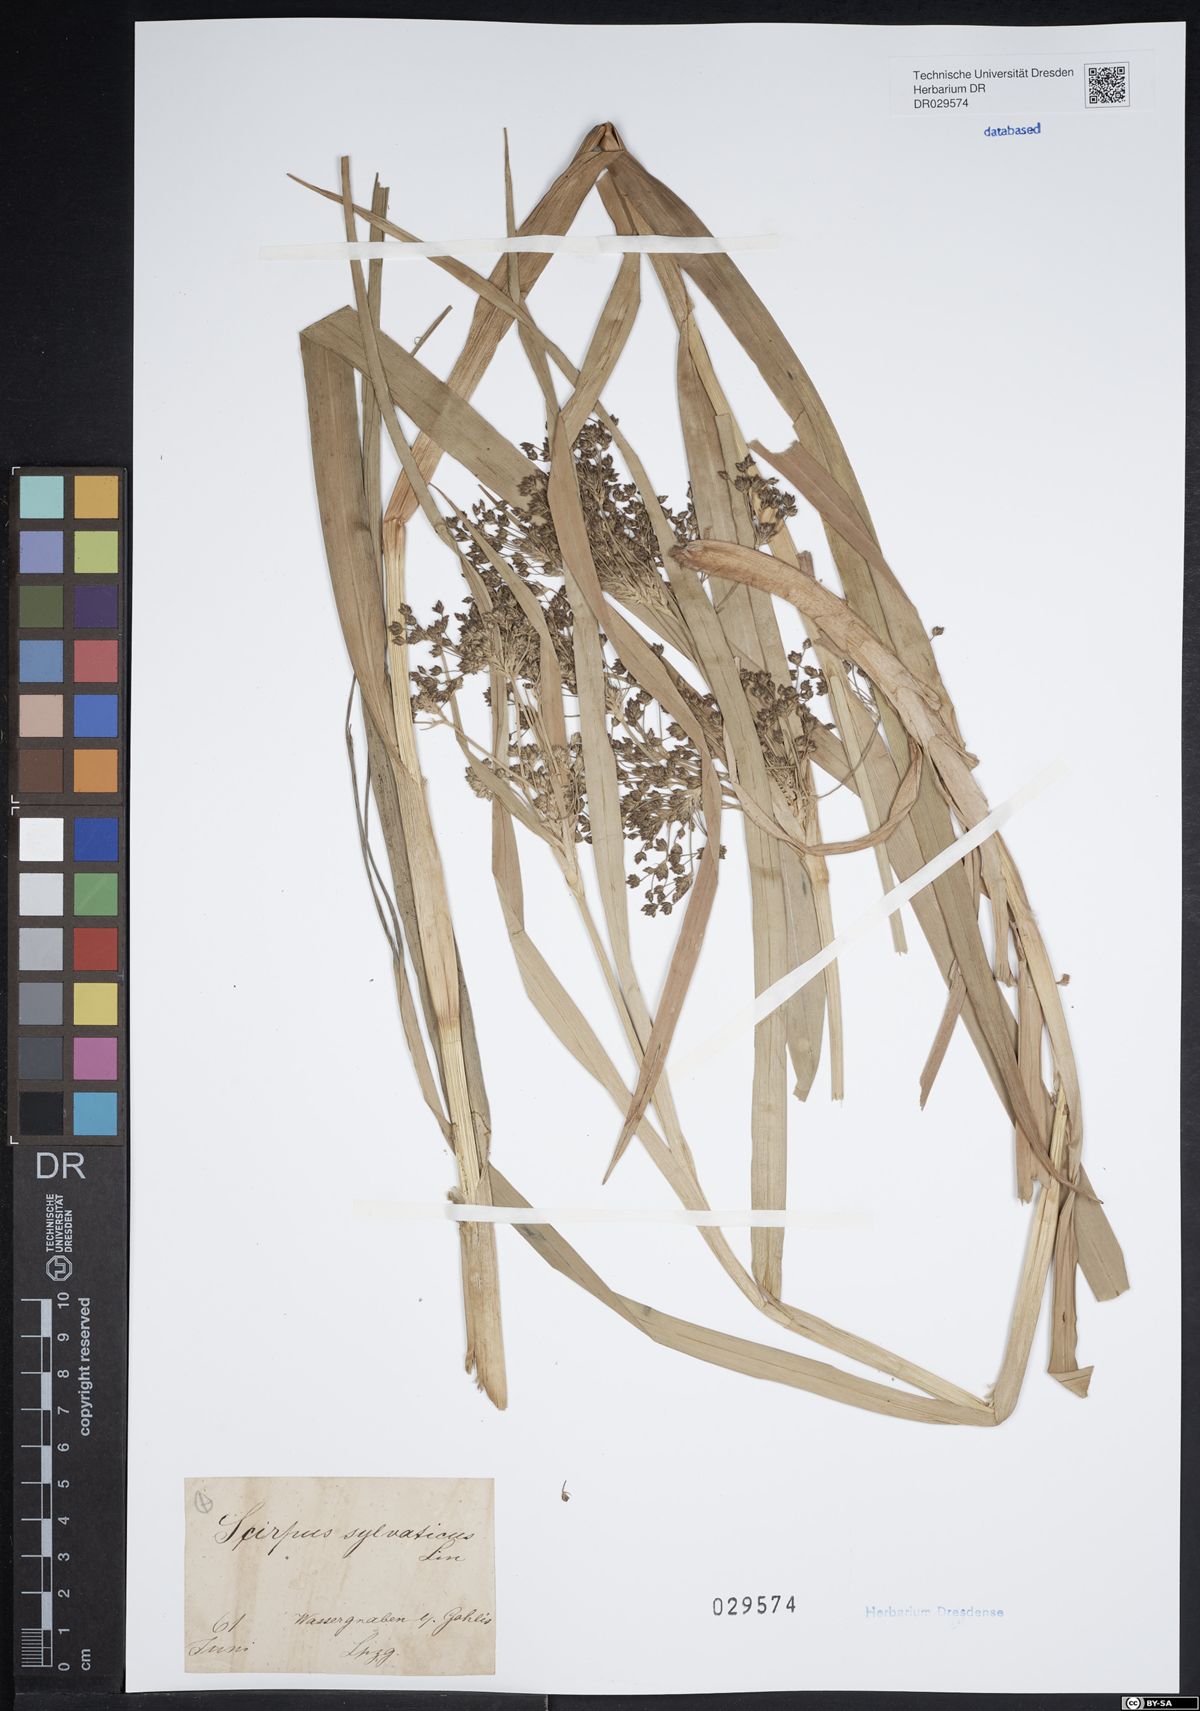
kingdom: Plantae
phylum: Tracheophyta
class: Liliopsida
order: Poales
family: Cyperaceae
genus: Scirpus
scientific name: Scirpus sylvaticus
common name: Wood club-rush
